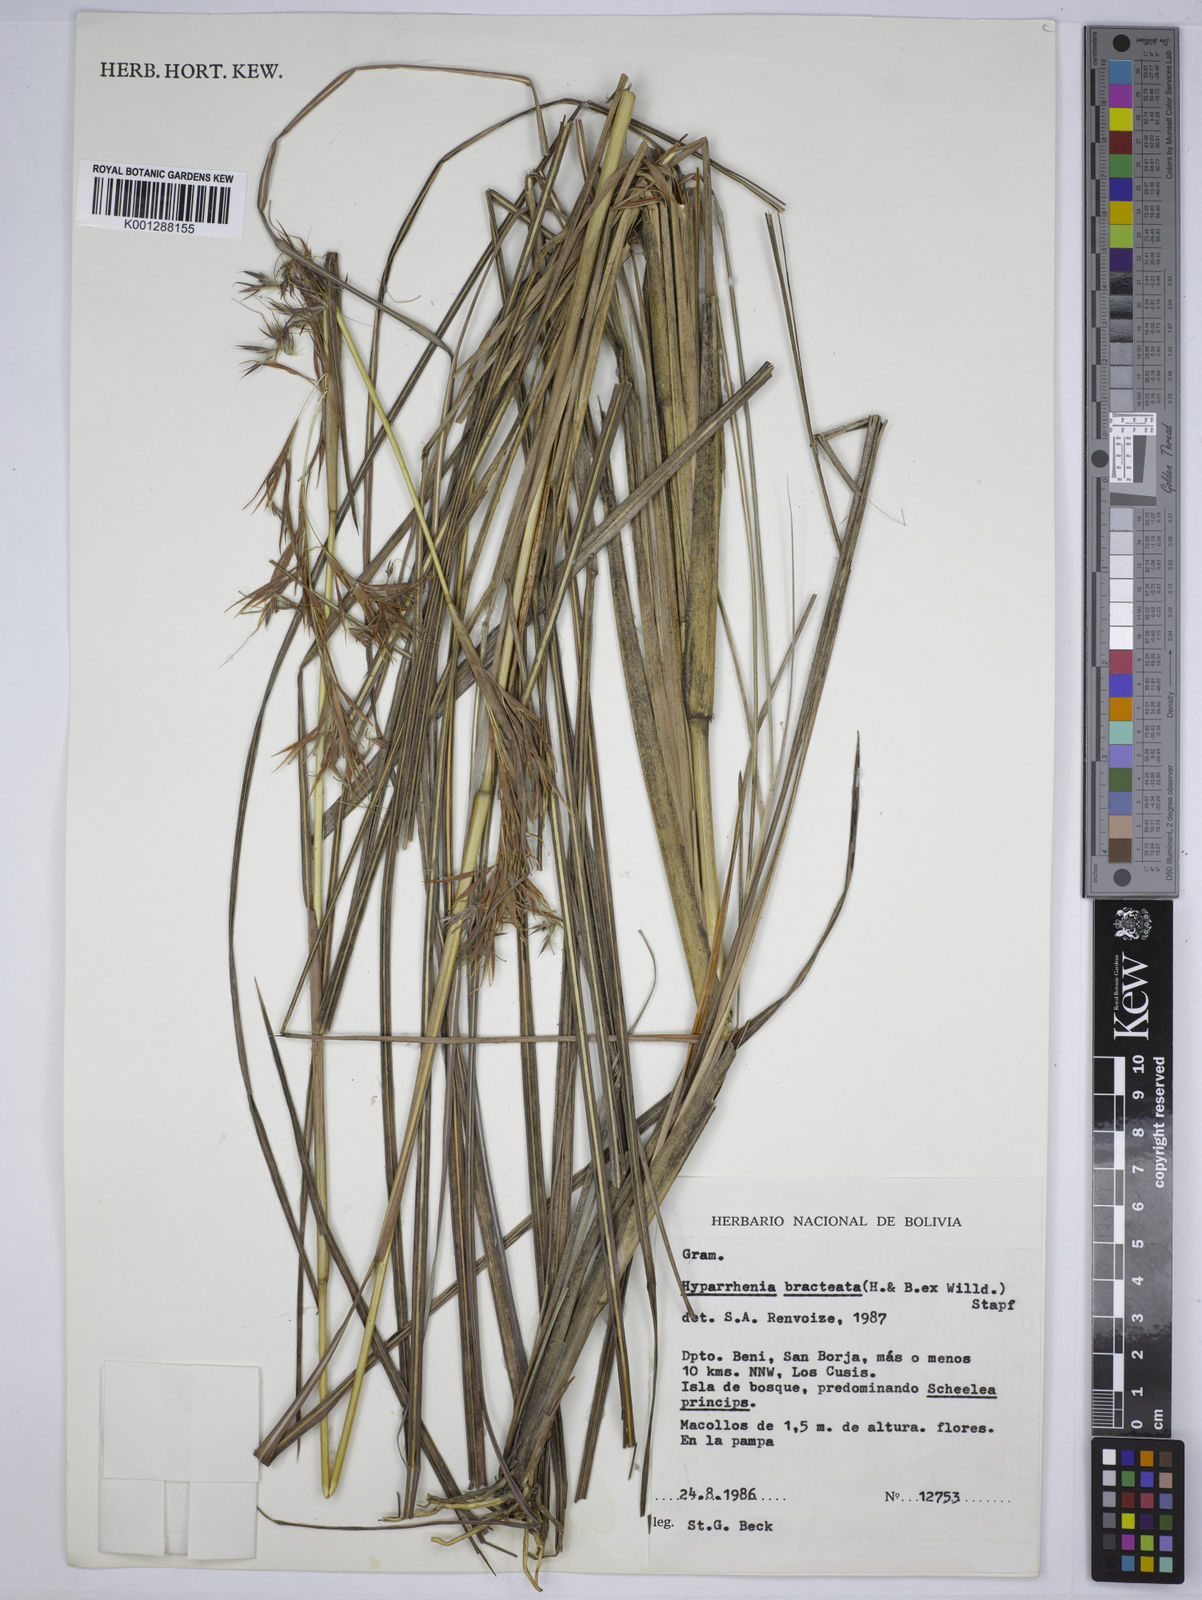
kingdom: Plantae
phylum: Tracheophyta
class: Liliopsida
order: Poales
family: Poaceae
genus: Hyparrhenia
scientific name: Hyparrhenia bracteata
